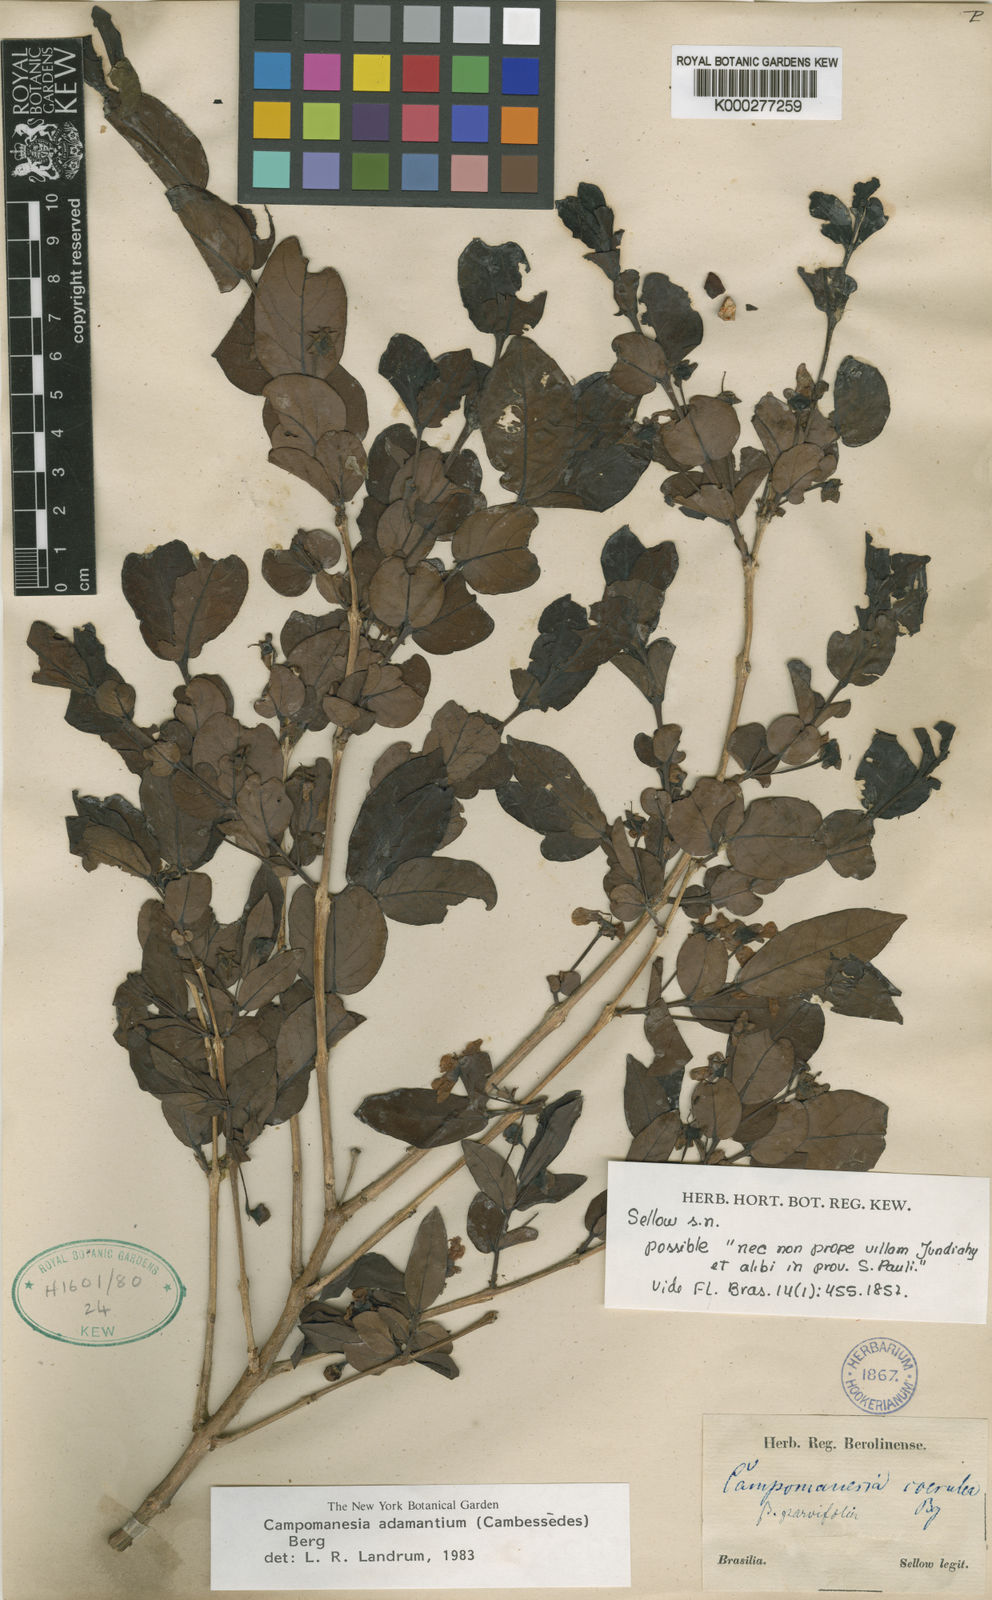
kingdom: Plantae
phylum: Tracheophyta
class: Magnoliopsida
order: Myrtales
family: Myrtaceae
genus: Campomanesia
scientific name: Campomanesia adamantium
